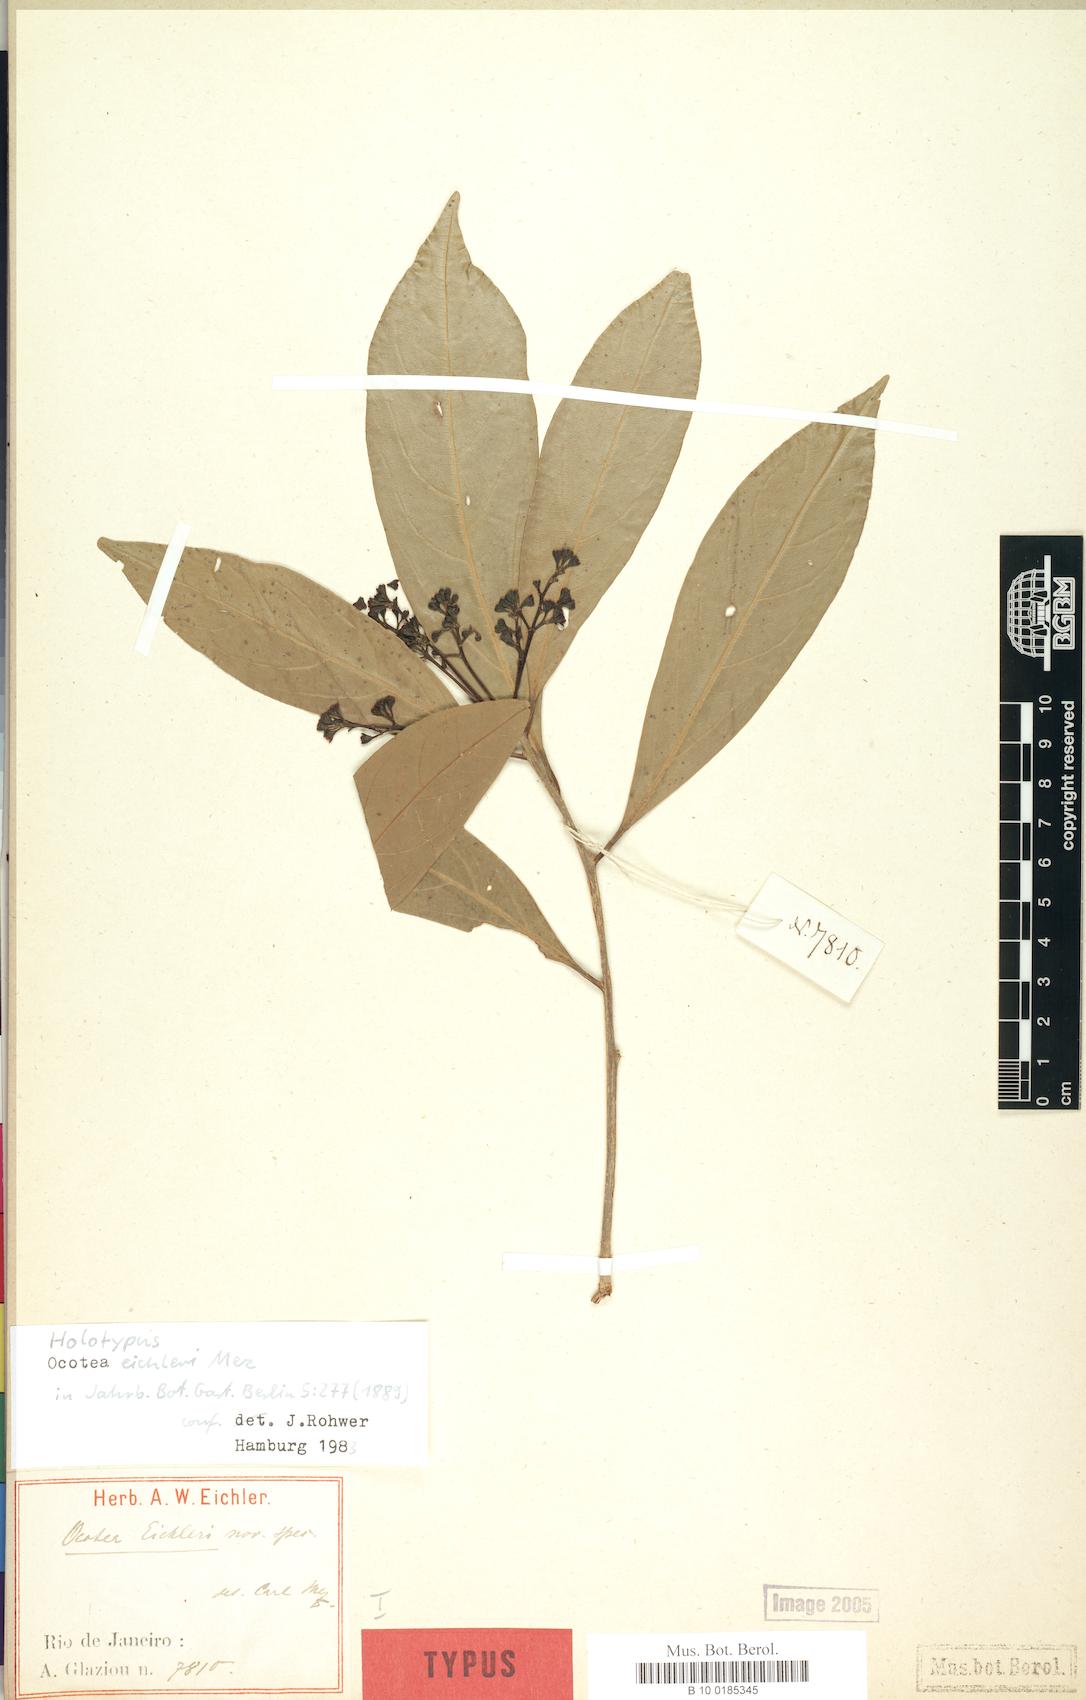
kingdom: Plantae
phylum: Tracheophyta
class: Magnoliopsida
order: Laurales
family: Lauraceae
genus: Ocotea
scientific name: Ocotea beyrichii
